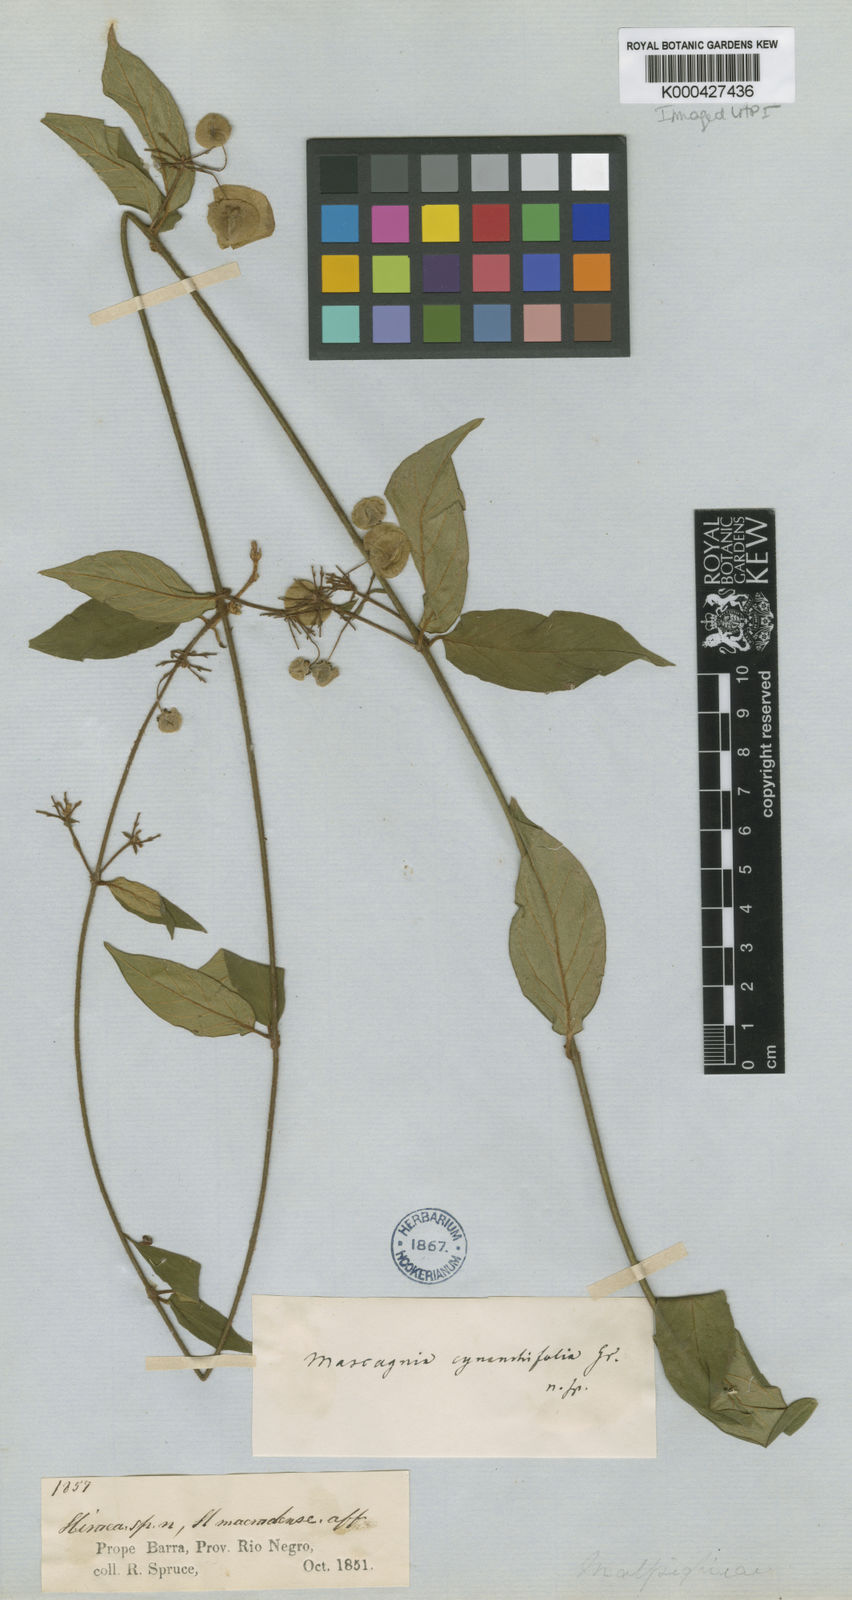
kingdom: Plantae
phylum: Tracheophyta
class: Magnoliopsida
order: Malpighiales
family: Malpighiaceae
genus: Mascagnia
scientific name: Mascagnia cynanchifolia
